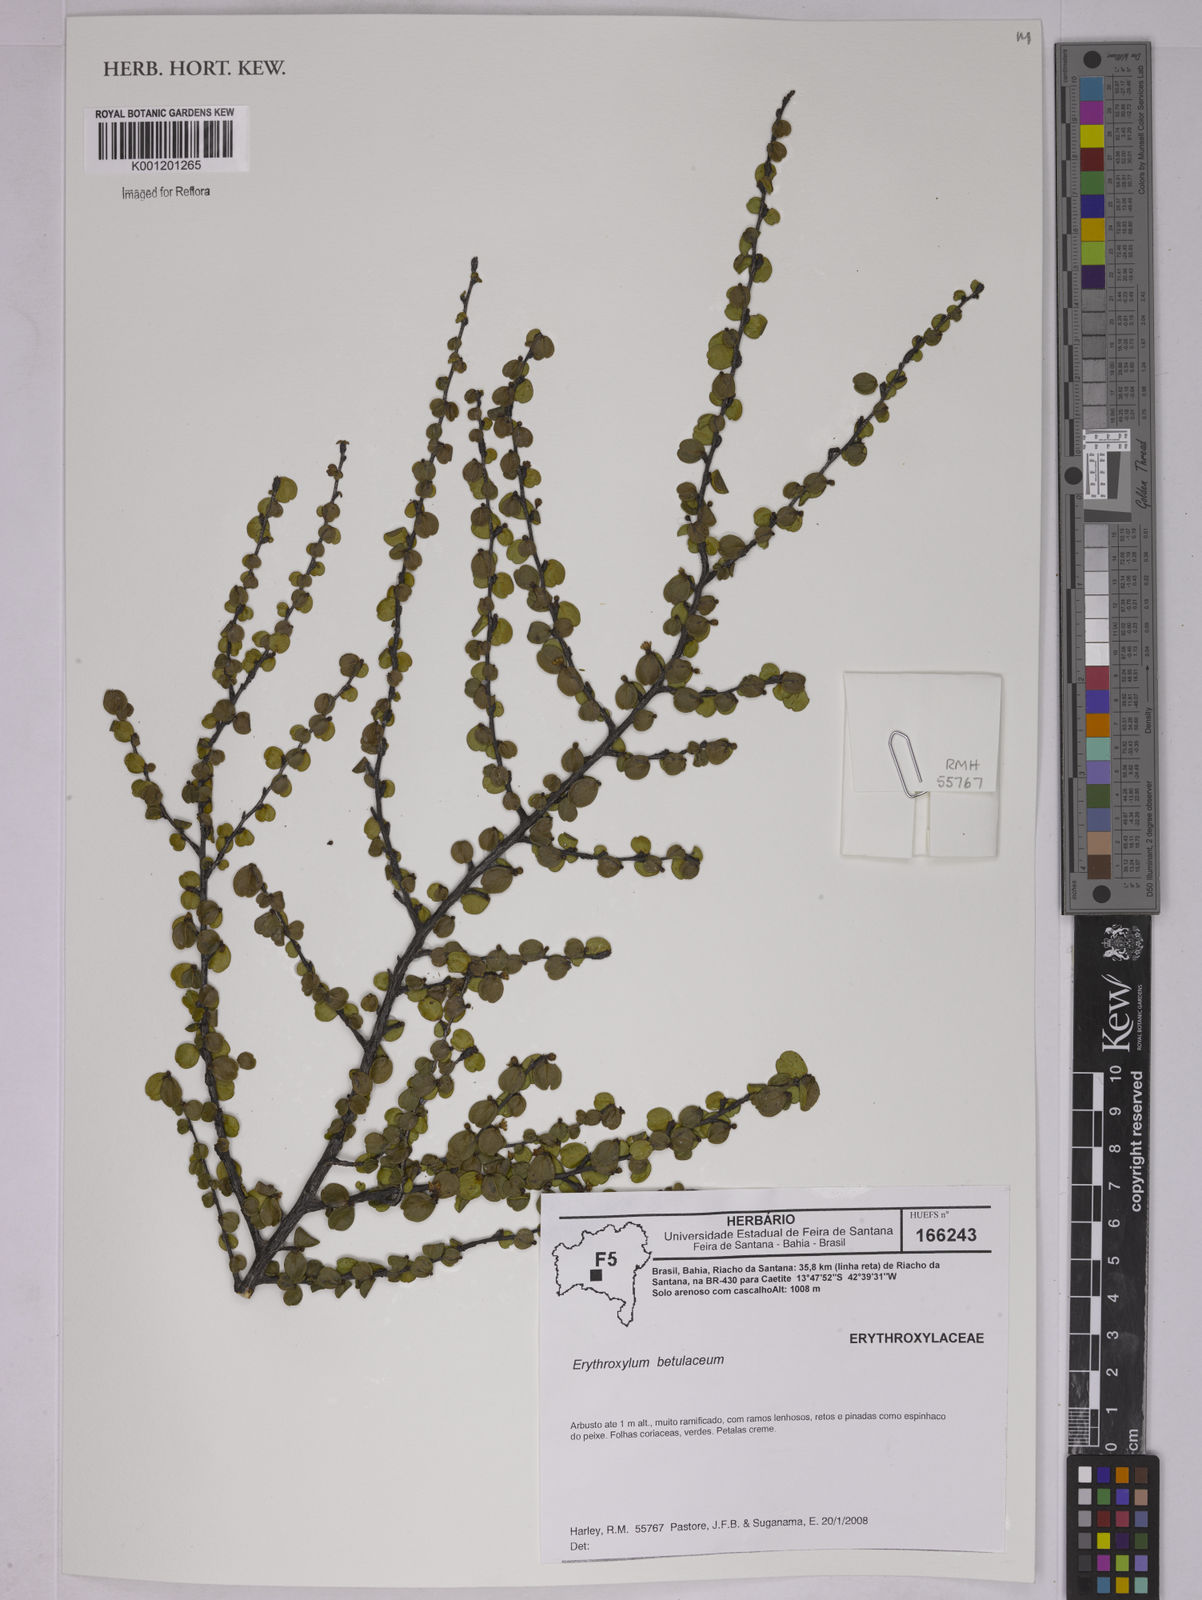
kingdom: Plantae
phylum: Tracheophyta
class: Magnoliopsida
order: Malpighiales
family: Erythroxylaceae
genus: Erythroxylum
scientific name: Erythroxylum betulaceum
